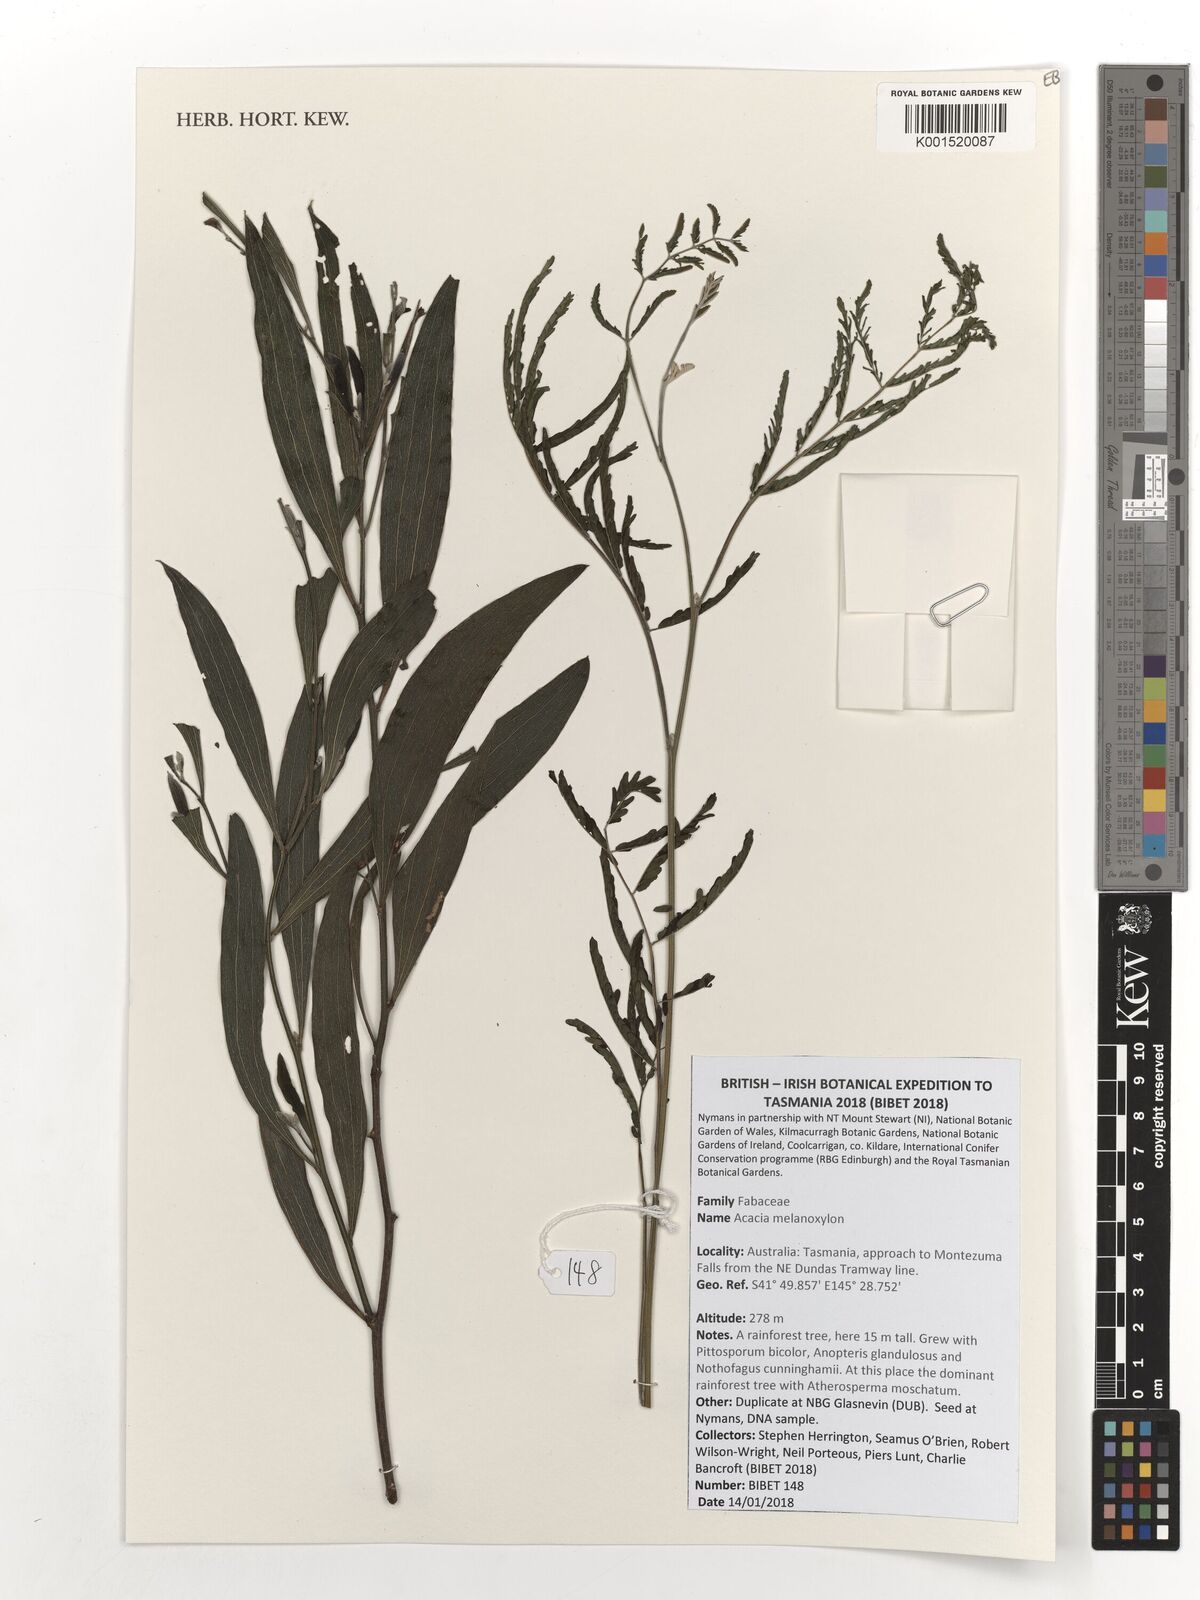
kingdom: Plantae
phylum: Tracheophyta
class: Magnoliopsida
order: Fabales
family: Fabaceae
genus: Acacia
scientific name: Acacia melanoxylon
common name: Blackwood
